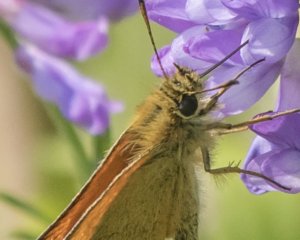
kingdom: Animalia
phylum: Arthropoda
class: Insecta
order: Lepidoptera
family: Hesperiidae
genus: Thymelicus
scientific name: Thymelicus lineola
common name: European Skipper
